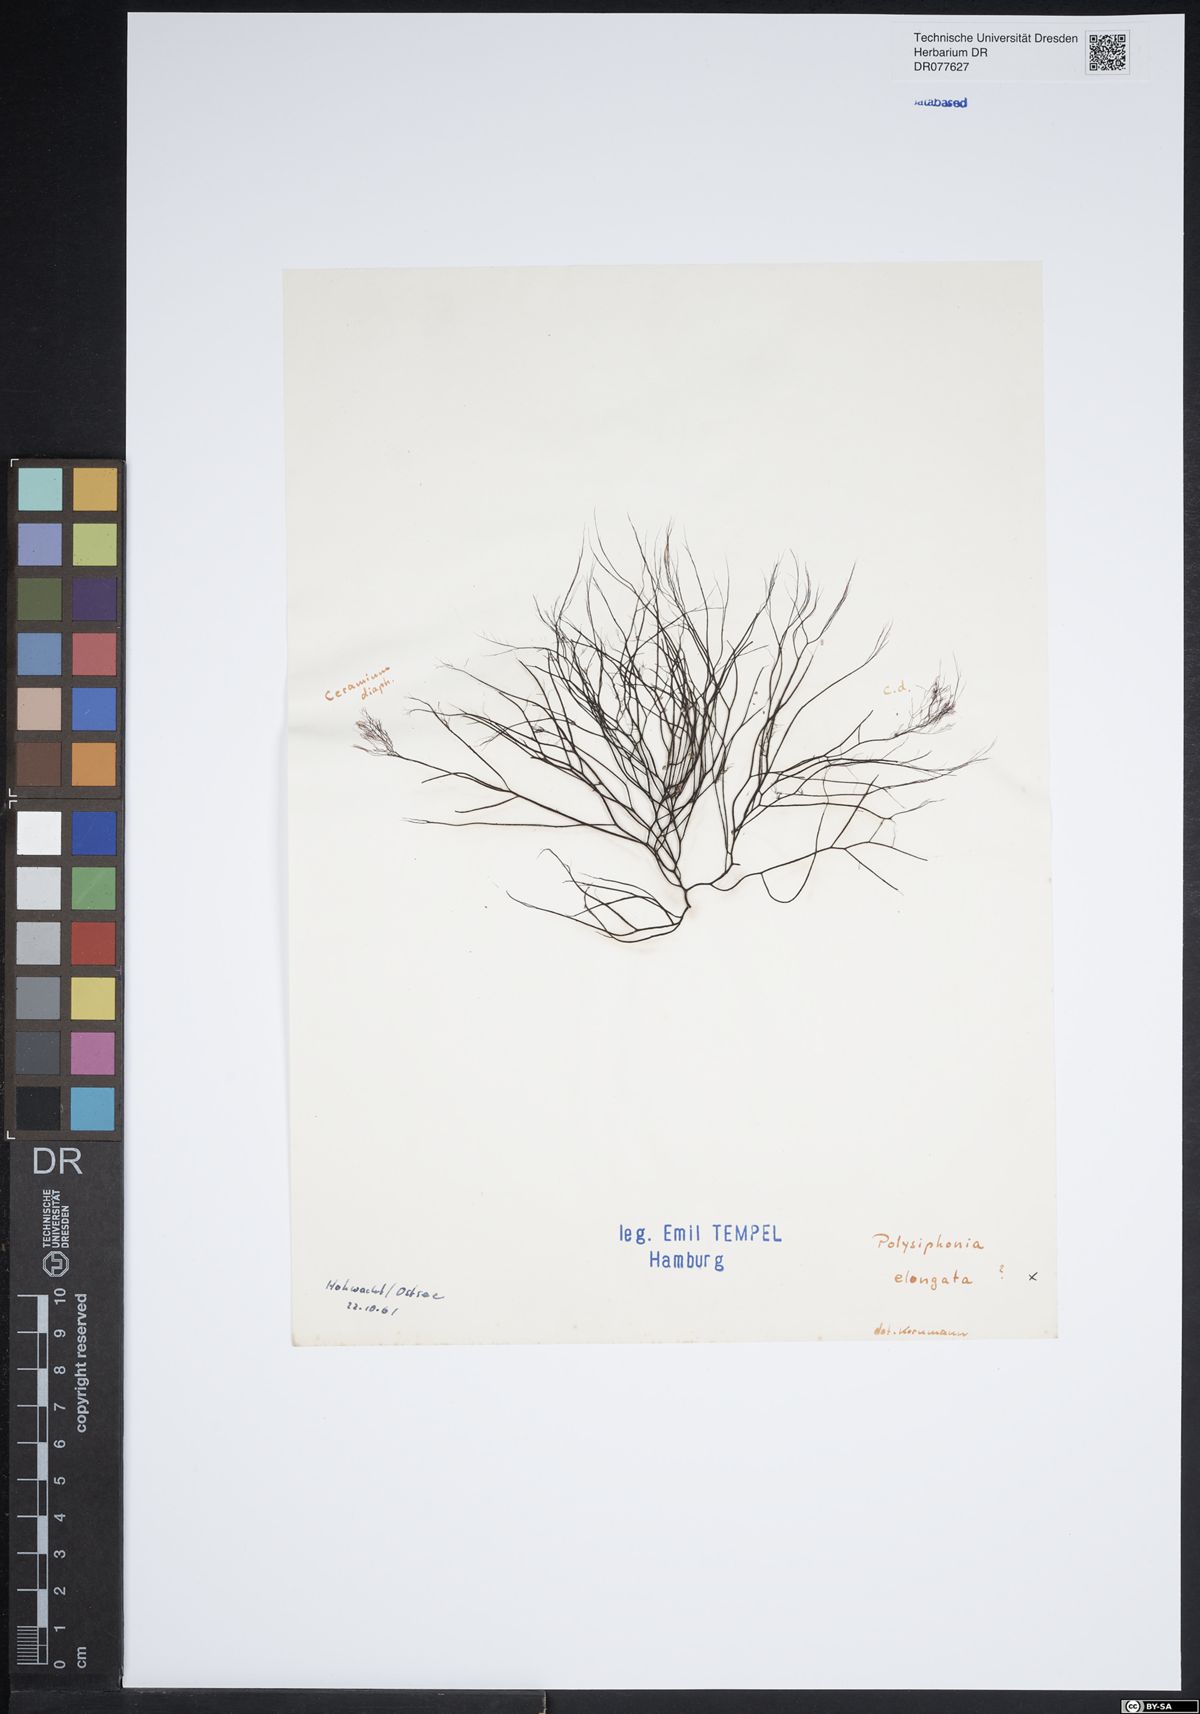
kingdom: Plantae
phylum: Rhodophyta
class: Florideophyceae
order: Ceramiales
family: Rhodomelaceae
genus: Vertebrata
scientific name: Vertebrata spec
